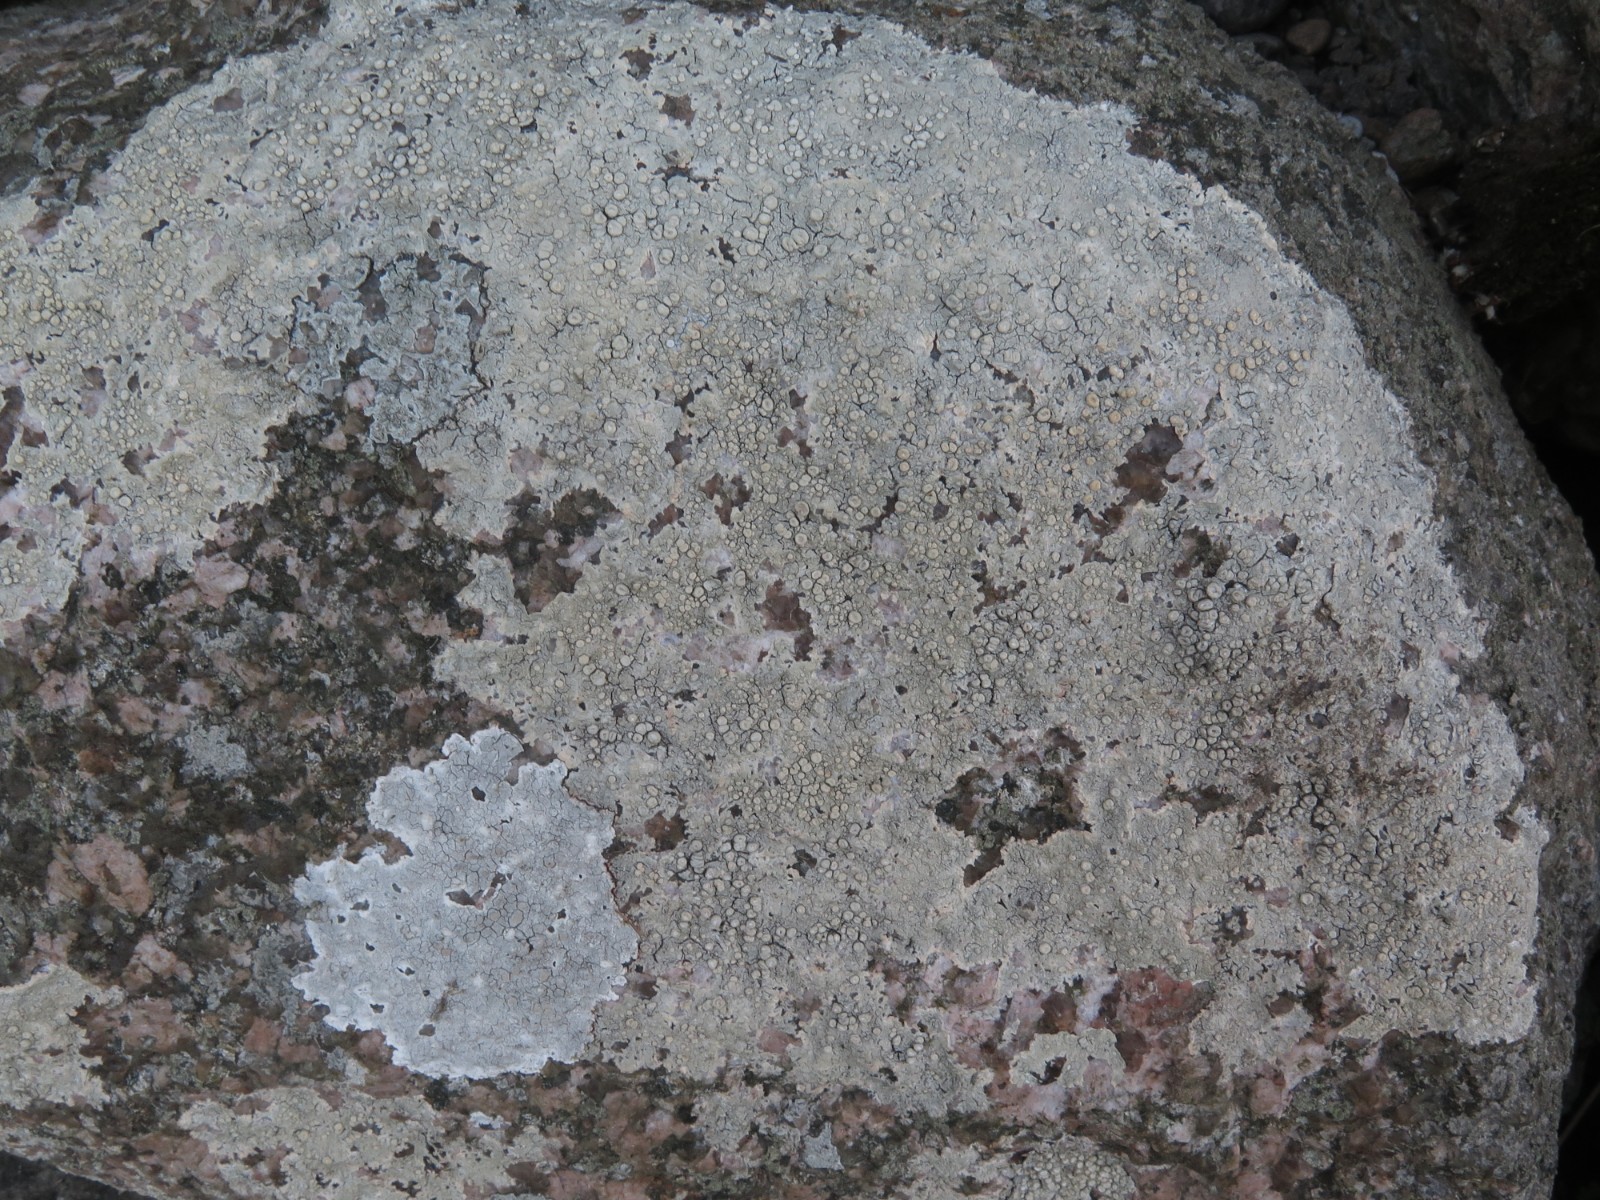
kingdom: Fungi
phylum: Ascomycota
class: Lecanoromycetes
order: Pertusariales
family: Ochrolechiaceae
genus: Ochrolechia
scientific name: Ochrolechia parella
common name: almindelig blegskivelav
